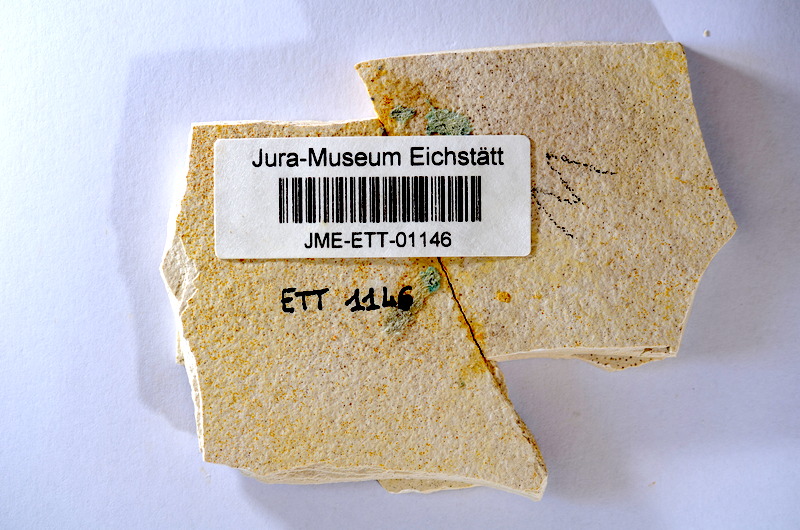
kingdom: Animalia
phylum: Chordata
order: Salmoniformes
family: Orthogonikleithridae
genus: Orthogonikleithrus
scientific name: Orthogonikleithrus hoelli
